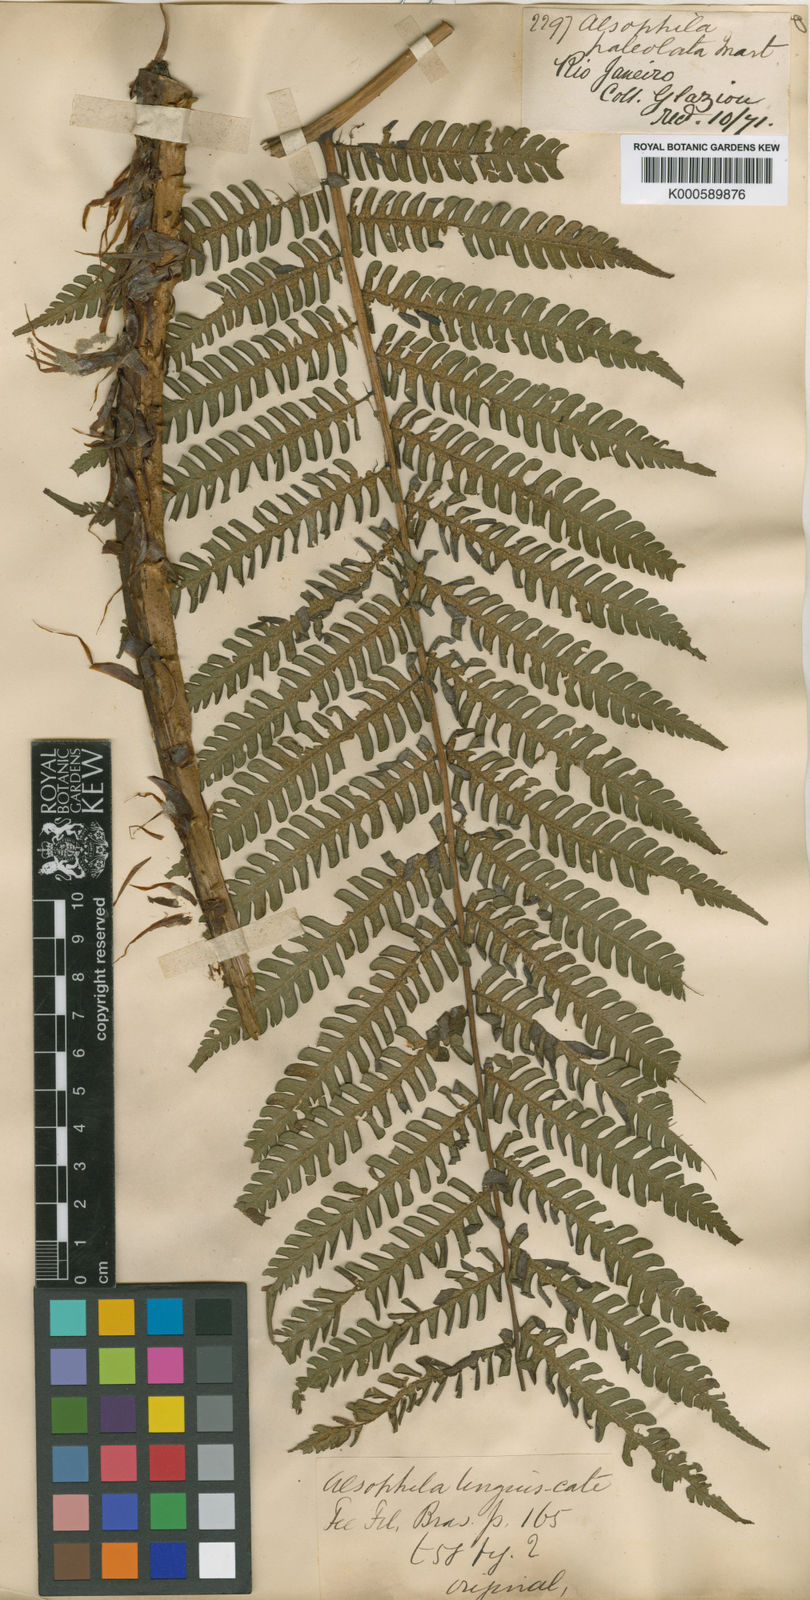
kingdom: Plantae
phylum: Tracheophyta
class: Polypodiopsida
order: Cyatheales
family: Cyatheaceae
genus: Cyathea
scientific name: Cyathea phalerata
